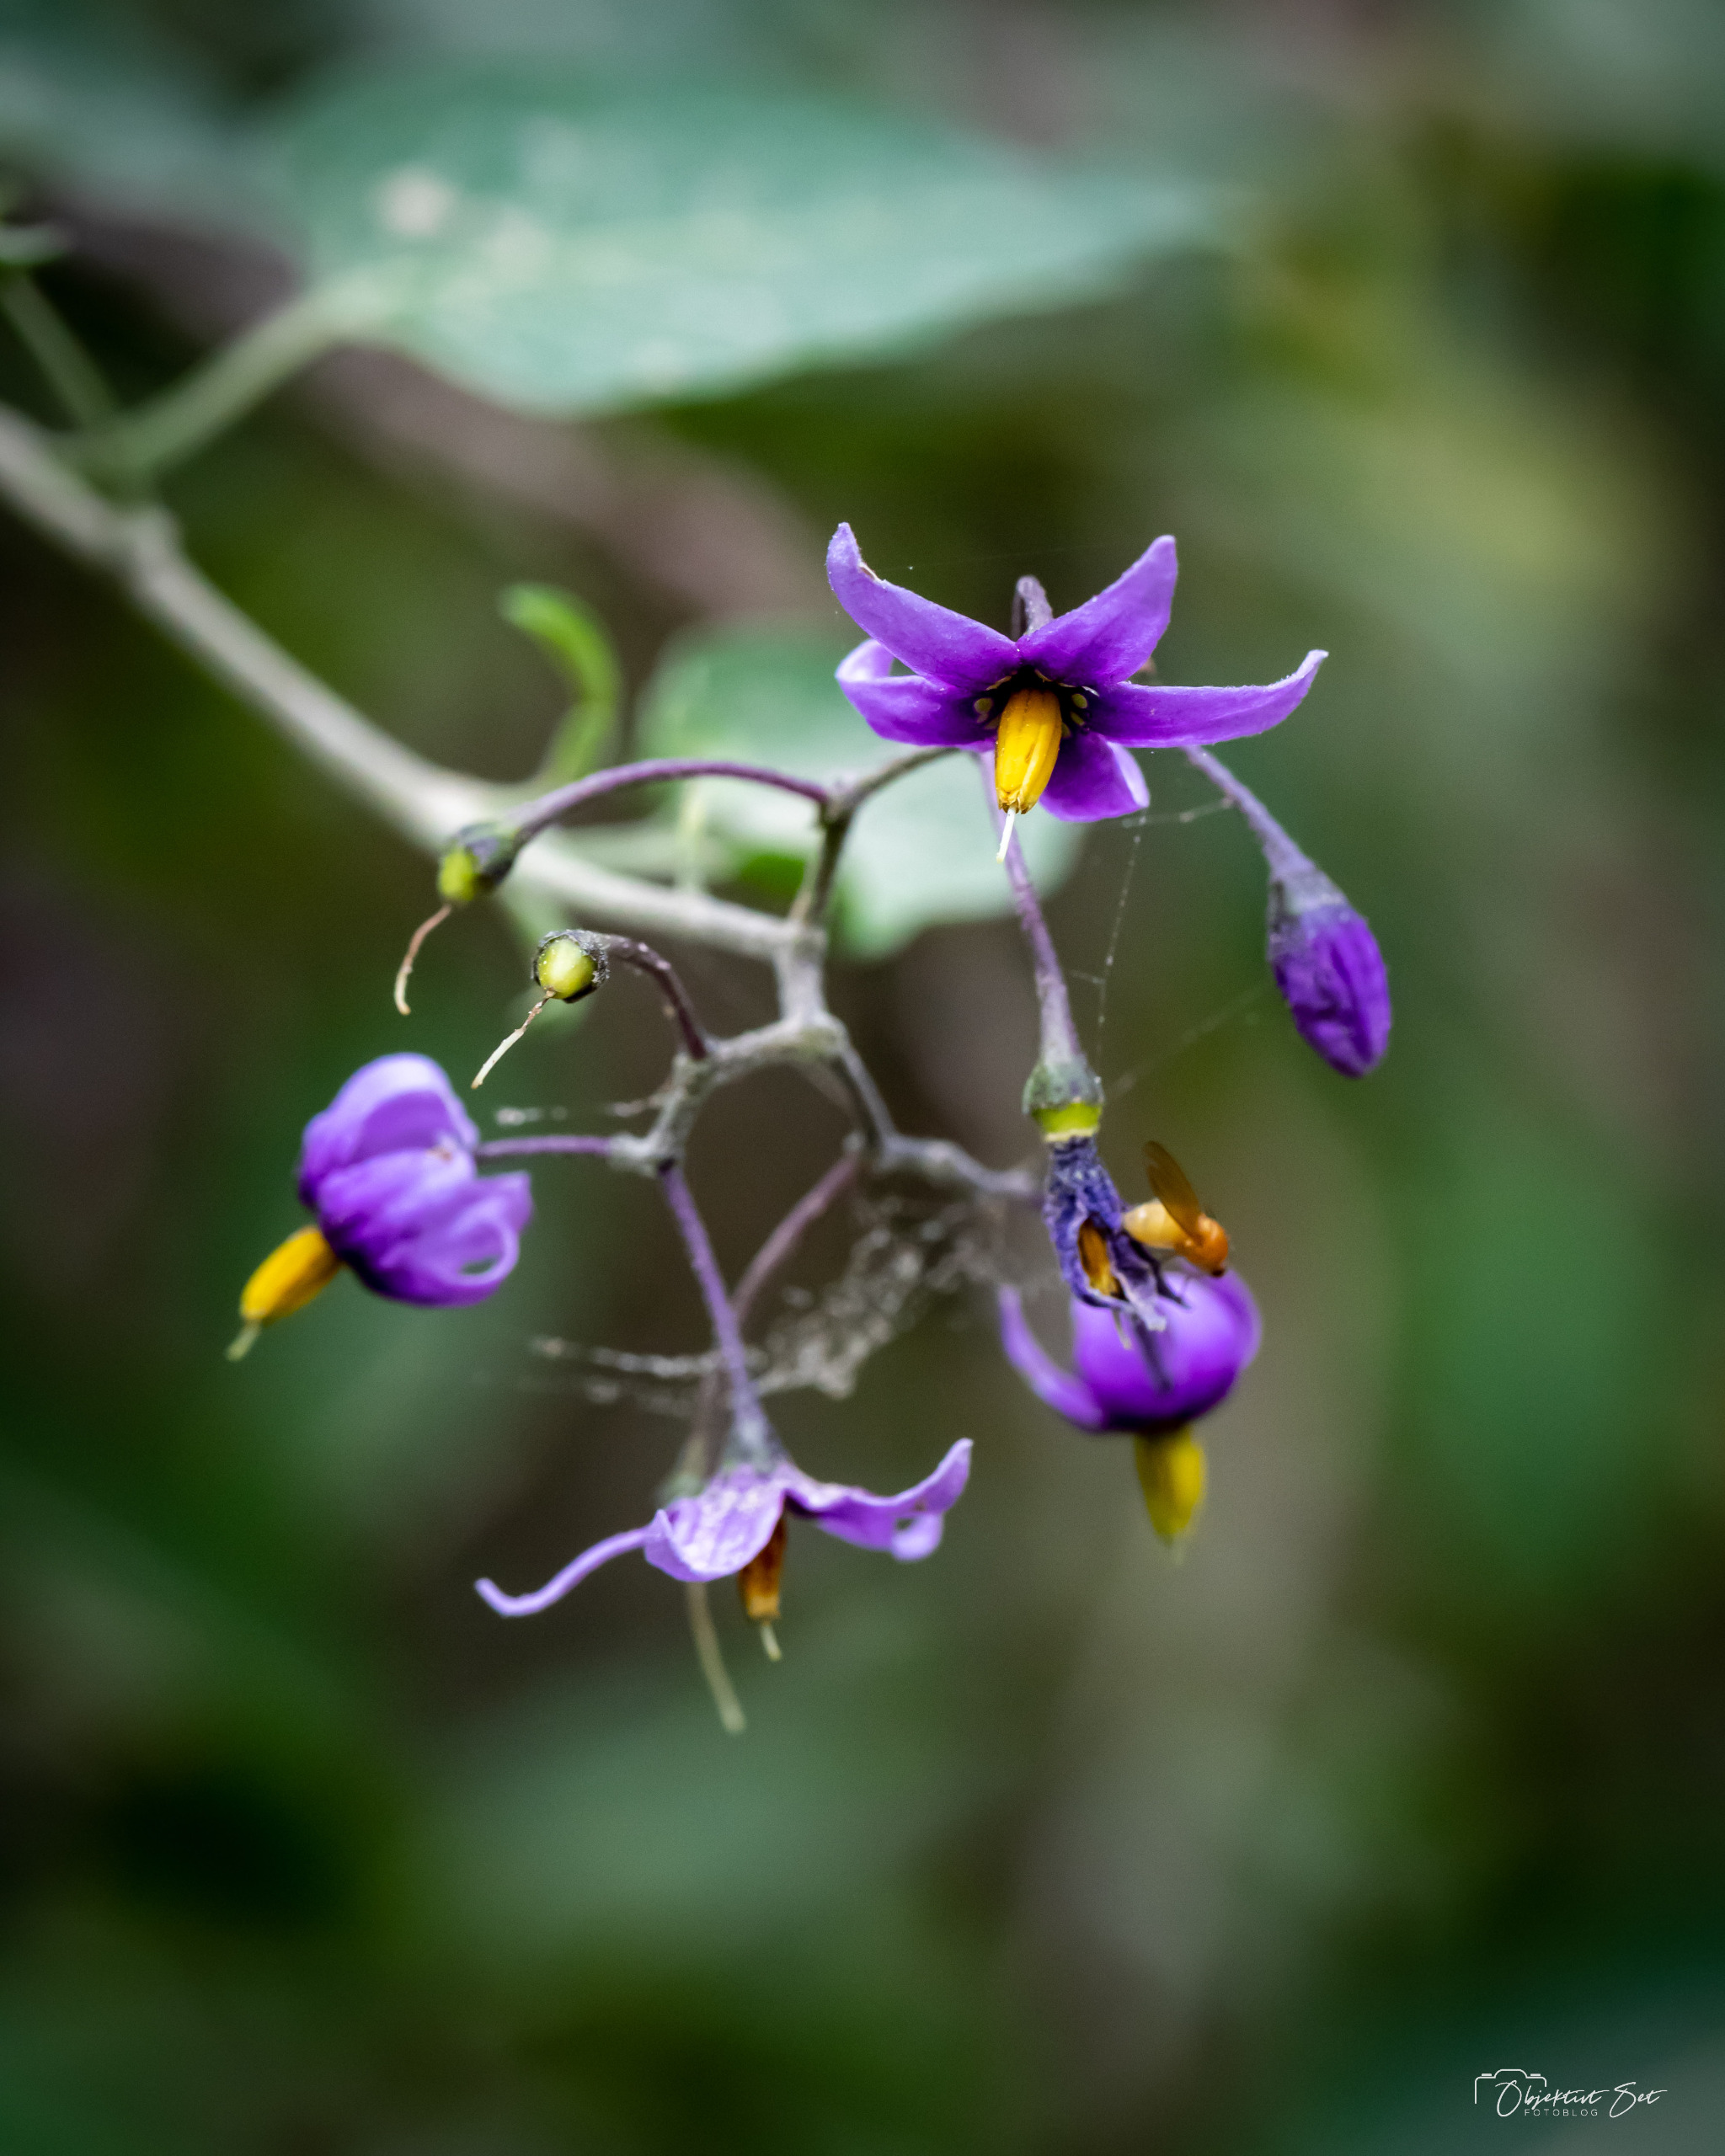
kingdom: Plantae
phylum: Tracheophyta
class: Magnoliopsida
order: Solanales
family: Solanaceae
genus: Solanum
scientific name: Solanum dulcamara
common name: Bittersød natskygge
